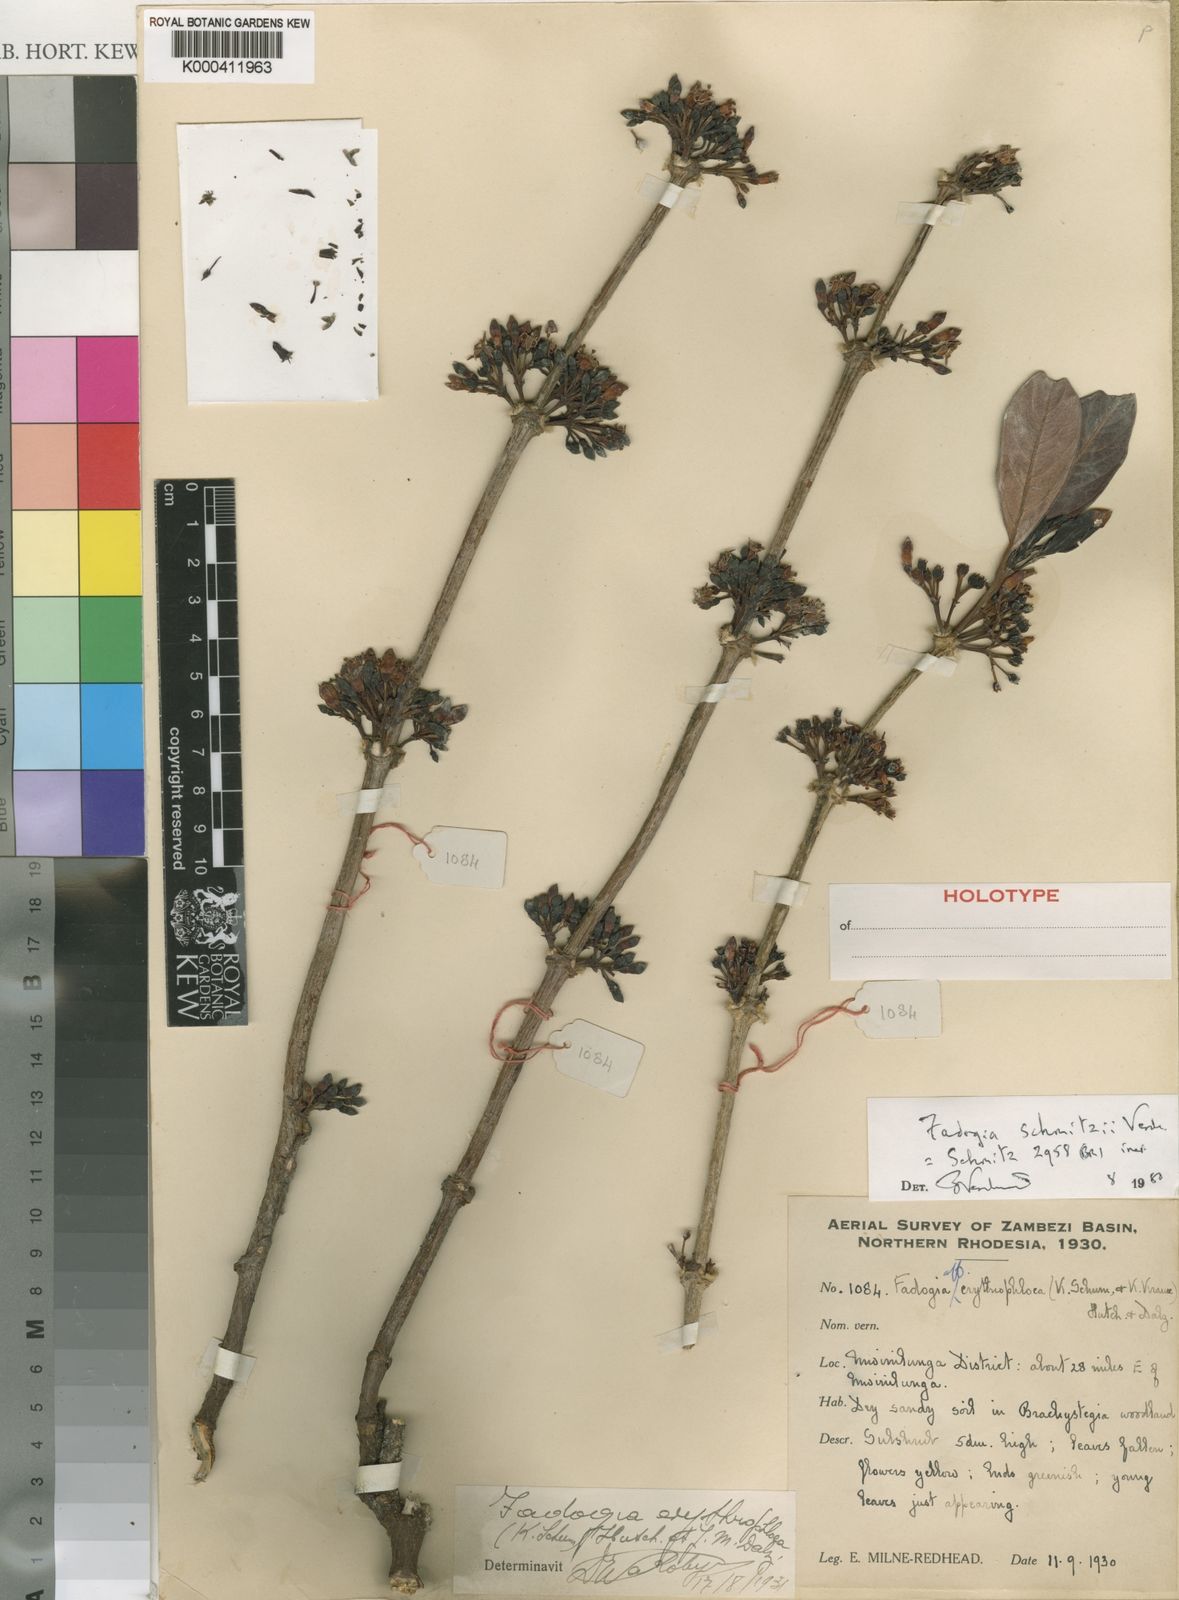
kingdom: Plantae
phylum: Tracheophyta
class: Magnoliopsida
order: Gentianales
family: Rubiaceae
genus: Fadogia
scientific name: Fadogia schmitzii
